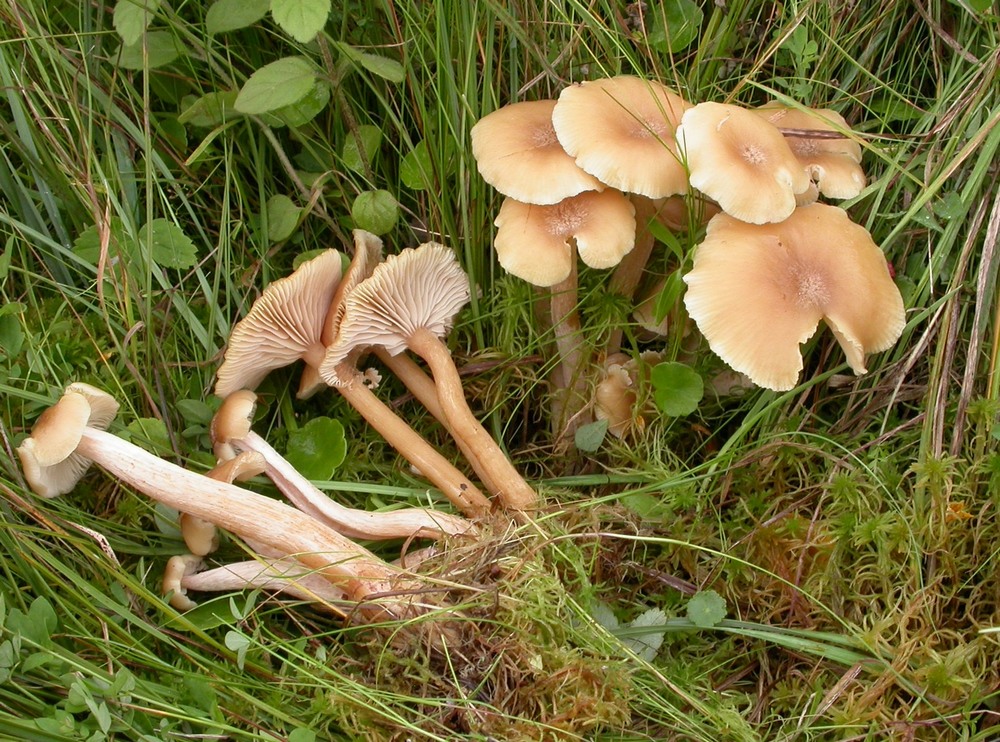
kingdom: Fungi
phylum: Basidiomycota
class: Agaricomycetes
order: Agaricales
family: Physalacriaceae
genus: Desarmillaria
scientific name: Desarmillaria ectypa
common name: ringløs honningsvamp
